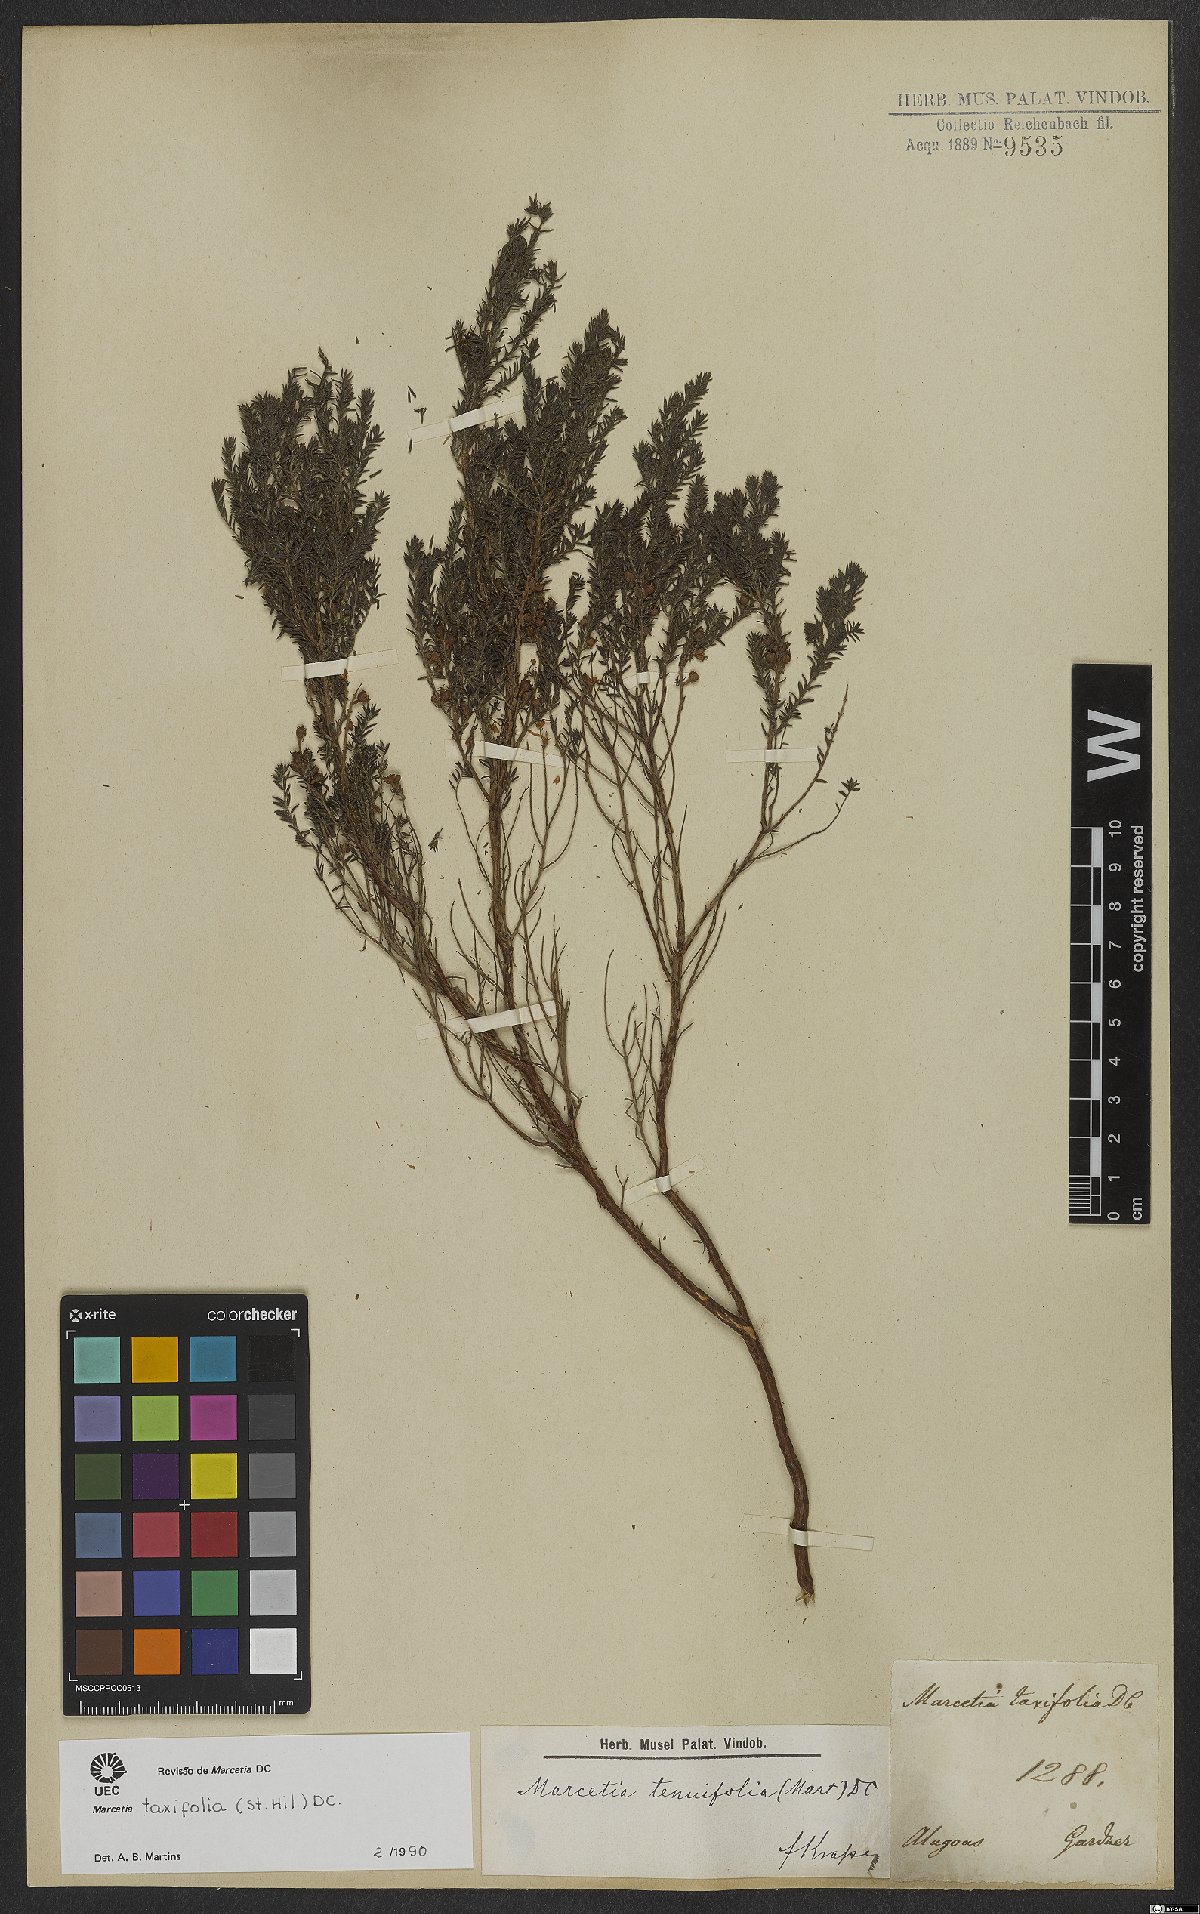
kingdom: Plantae
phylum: Tracheophyta
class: Magnoliopsida
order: Myrtales
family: Melastomataceae
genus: Marcetia
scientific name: Marcetia taxifolia
